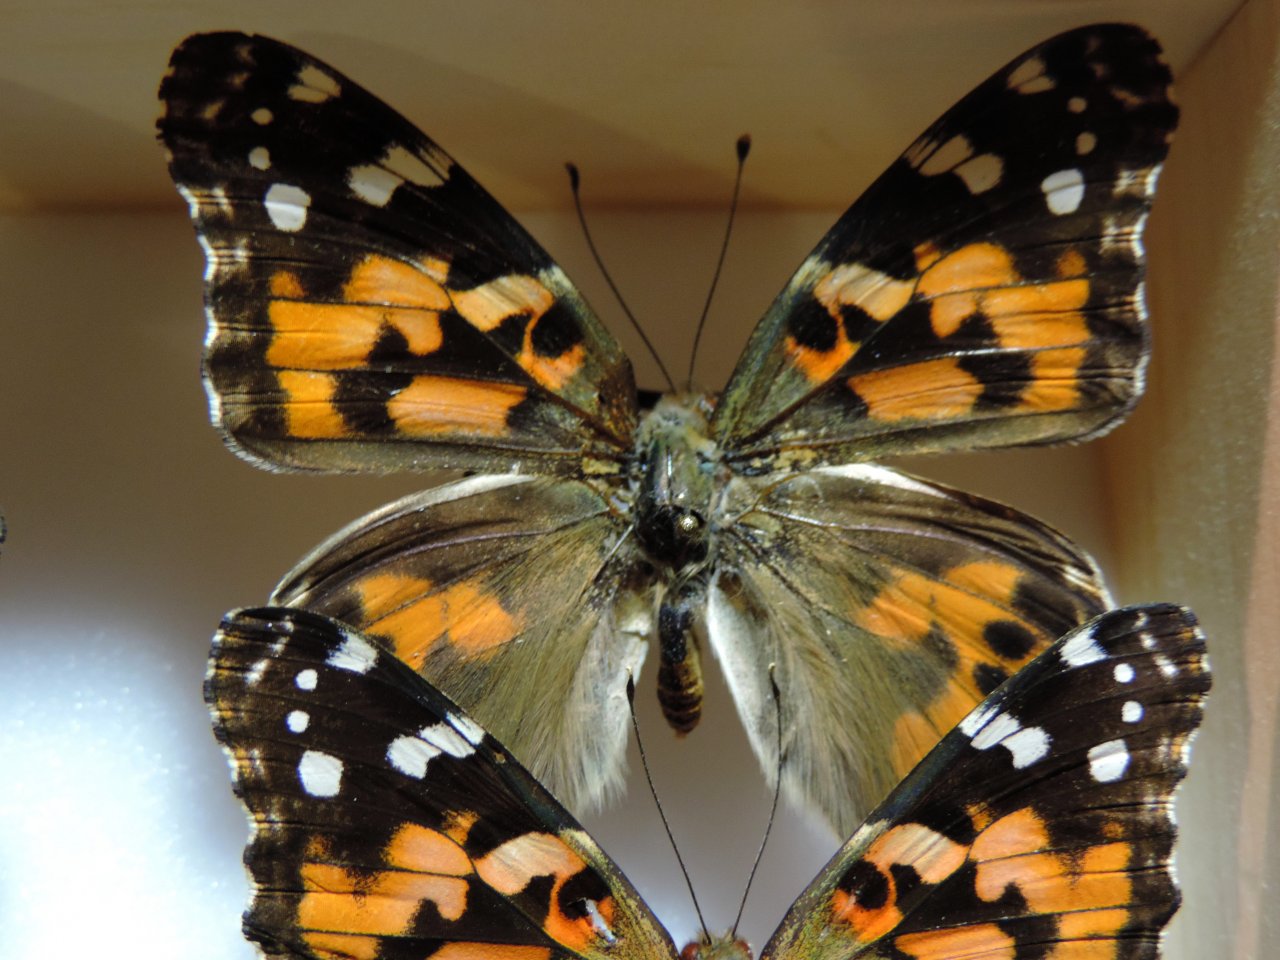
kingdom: Animalia
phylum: Arthropoda
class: Insecta
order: Lepidoptera
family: Nymphalidae
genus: Vanessa
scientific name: Vanessa cardui
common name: Painted Lady
